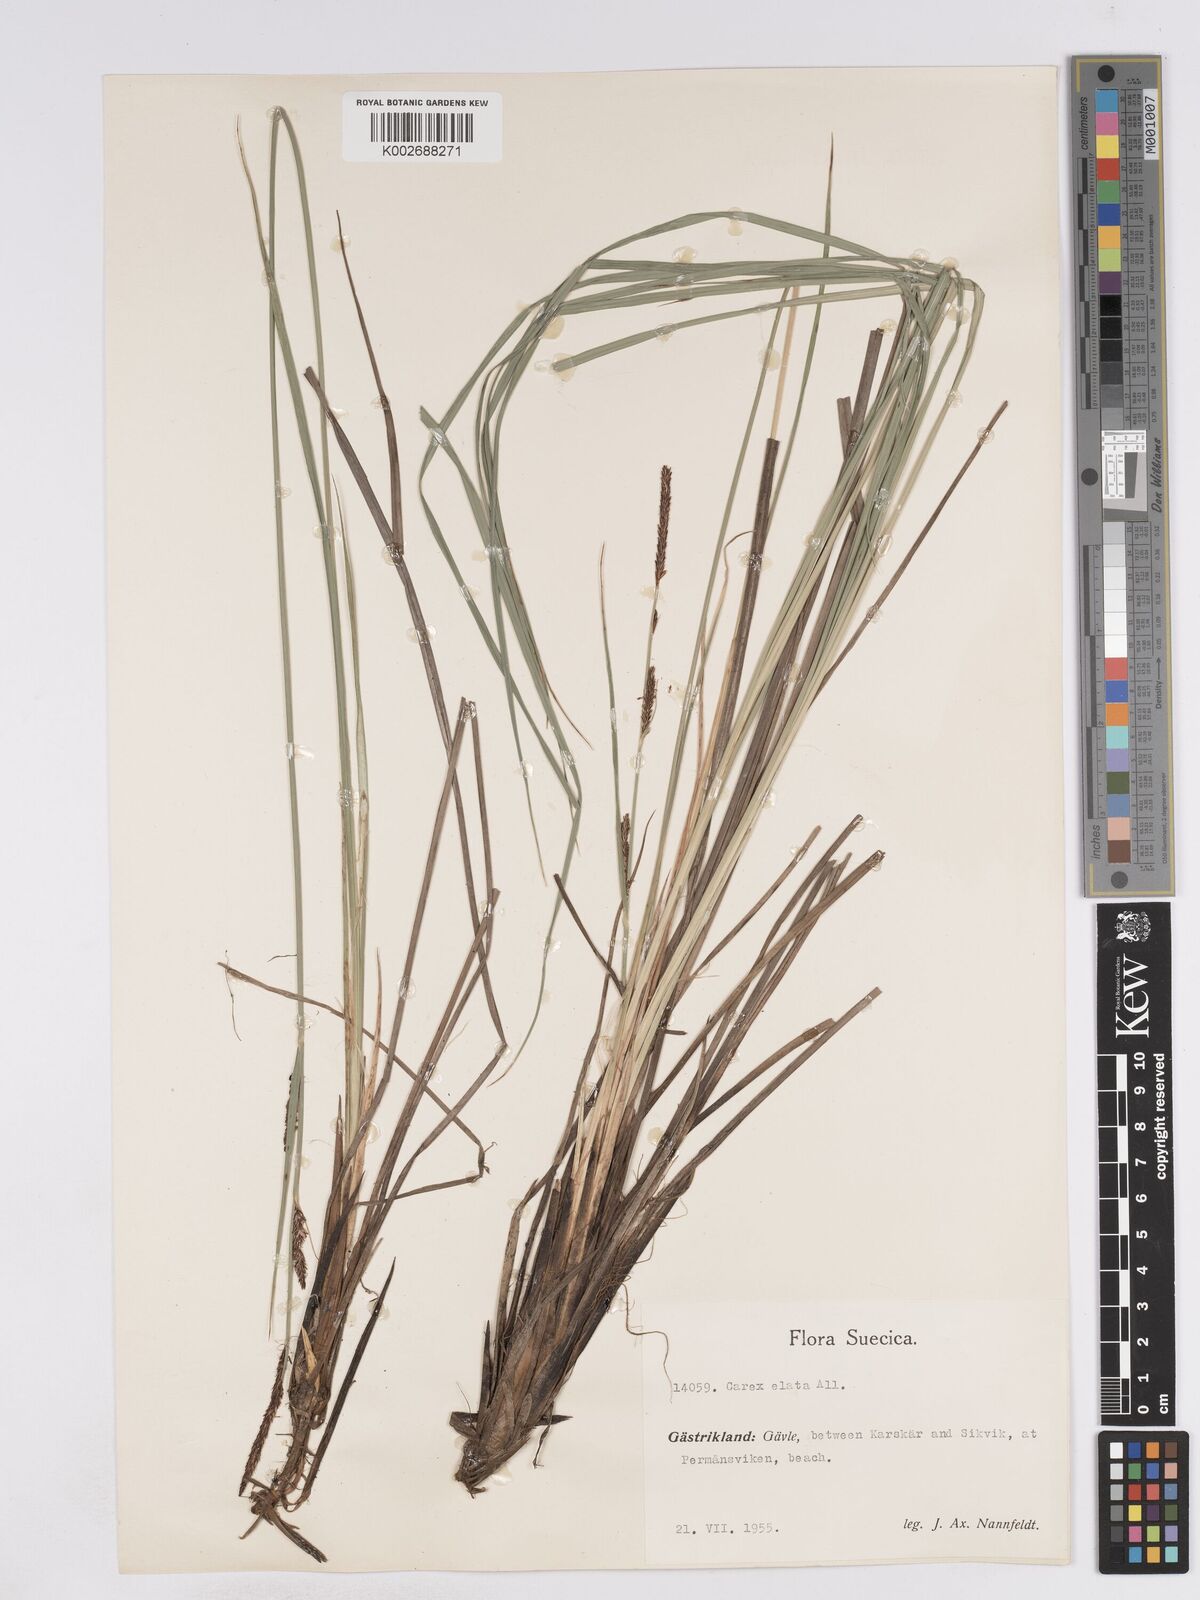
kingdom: Plantae
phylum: Tracheophyta
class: Liliopsida
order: Poales
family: Cyperaceae
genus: Carex
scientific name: Carex elata
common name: Tufted sedge
